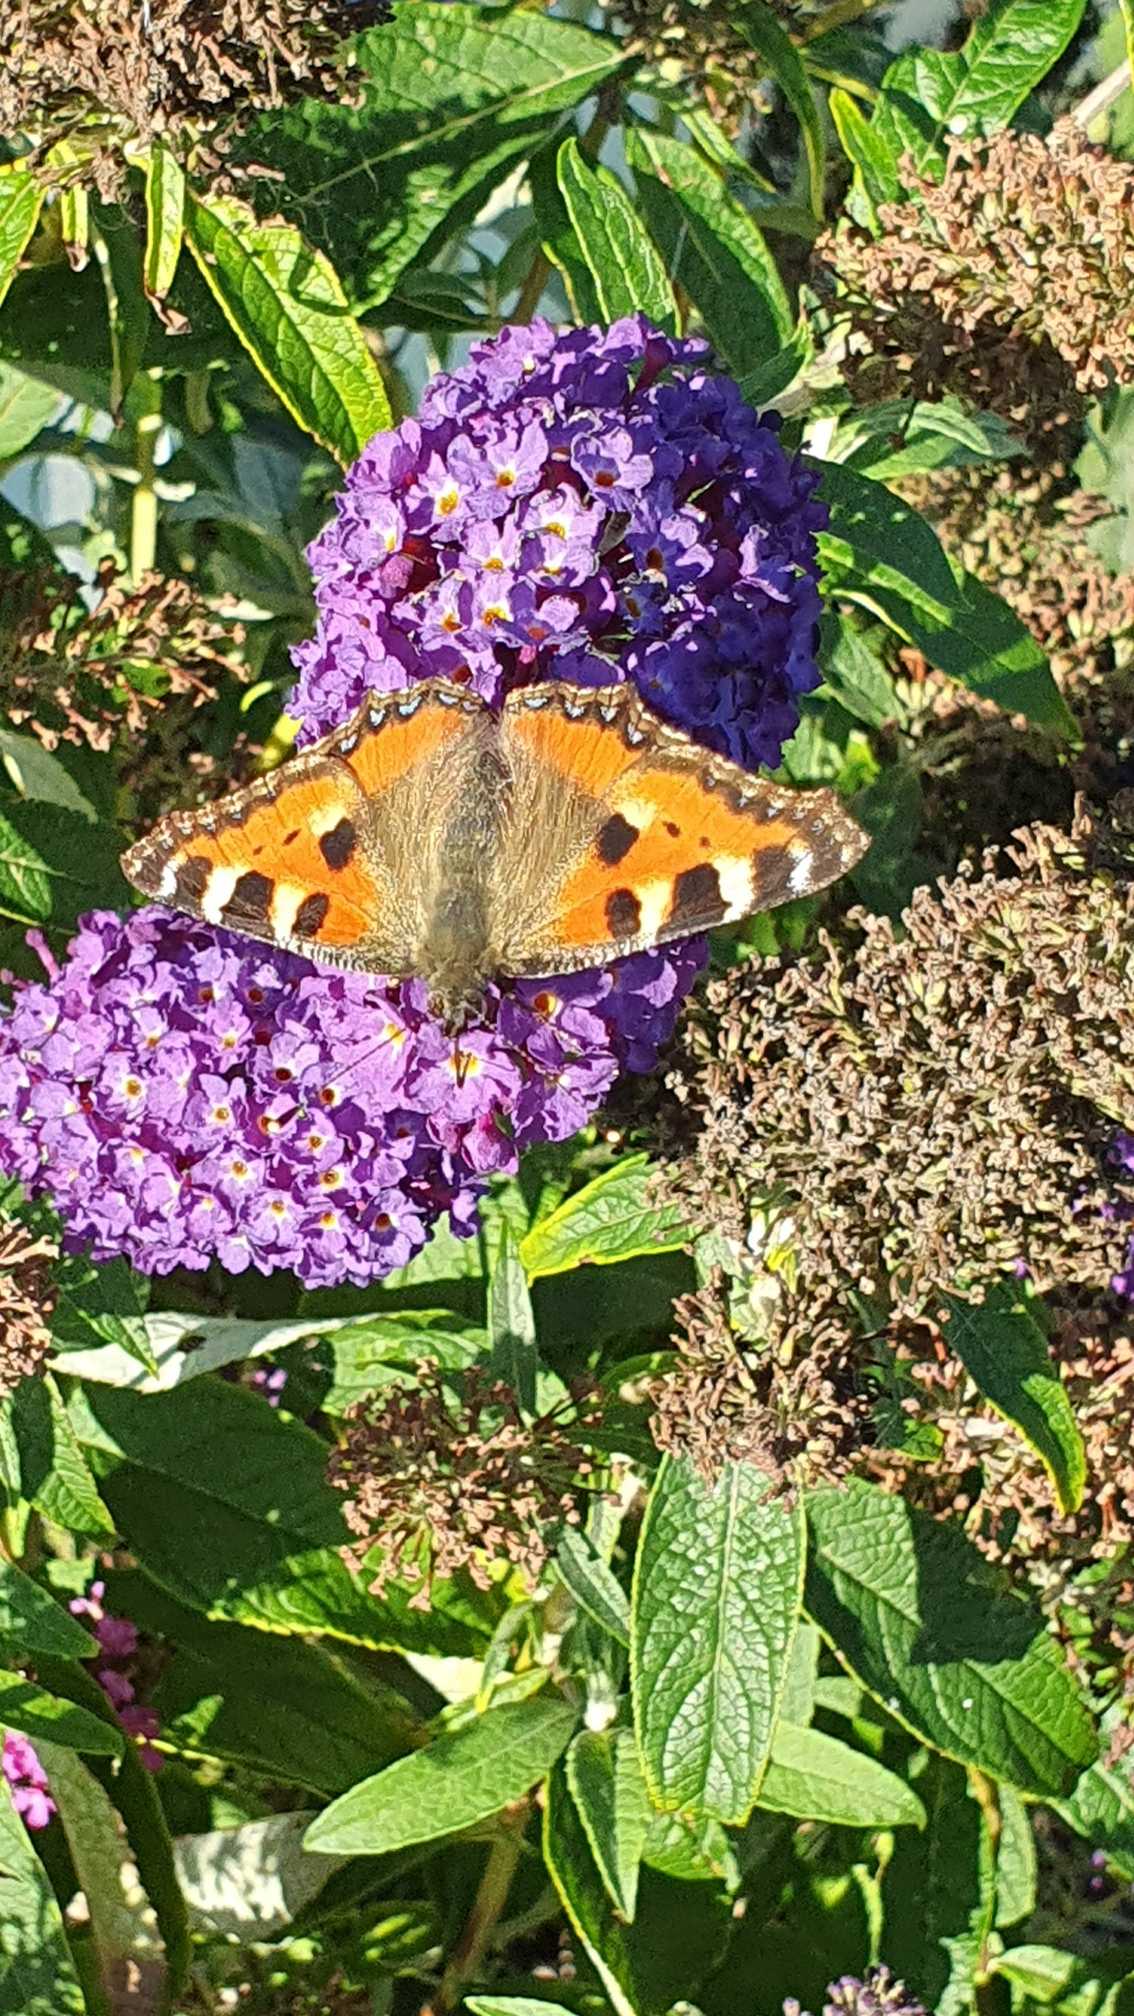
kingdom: Animalia
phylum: Arthropoda
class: Insecta
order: Lepidoptera
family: Nymphalidae
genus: Aglais
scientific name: Aglais urticae
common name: Nældens takvinge
